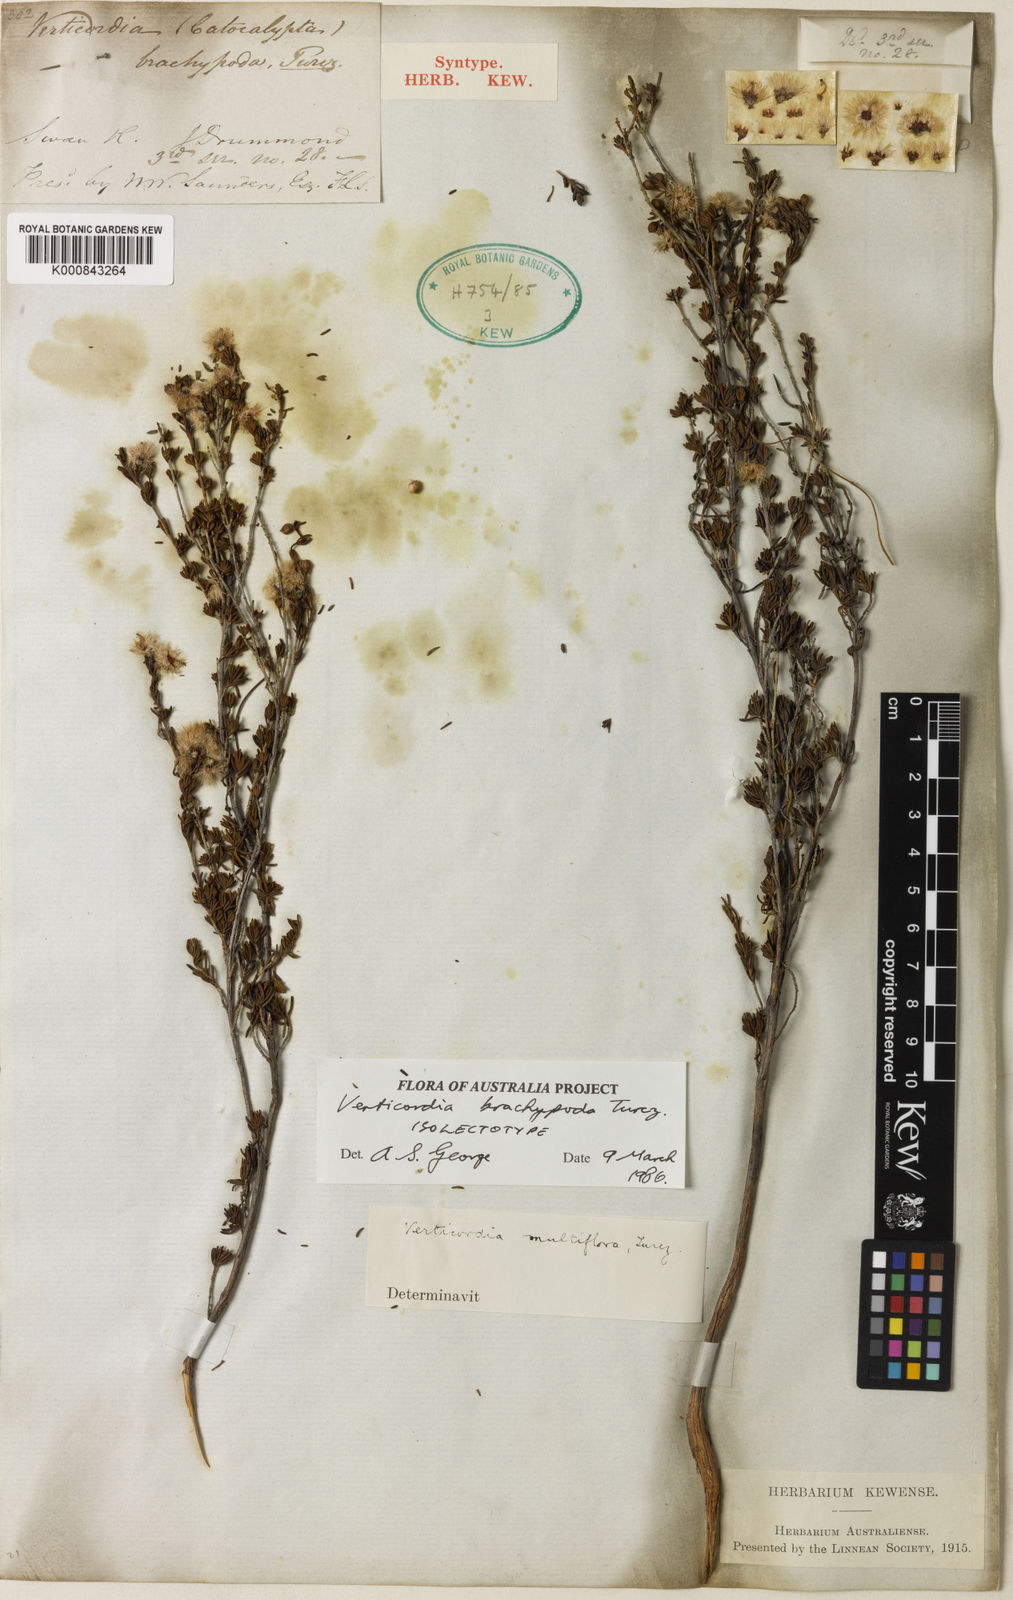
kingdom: Plantae
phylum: Tracheophyta
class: Magnoliopsida
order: Myrtales
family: Myrtaceae
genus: Verticordia
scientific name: Verticordia brachypoda
